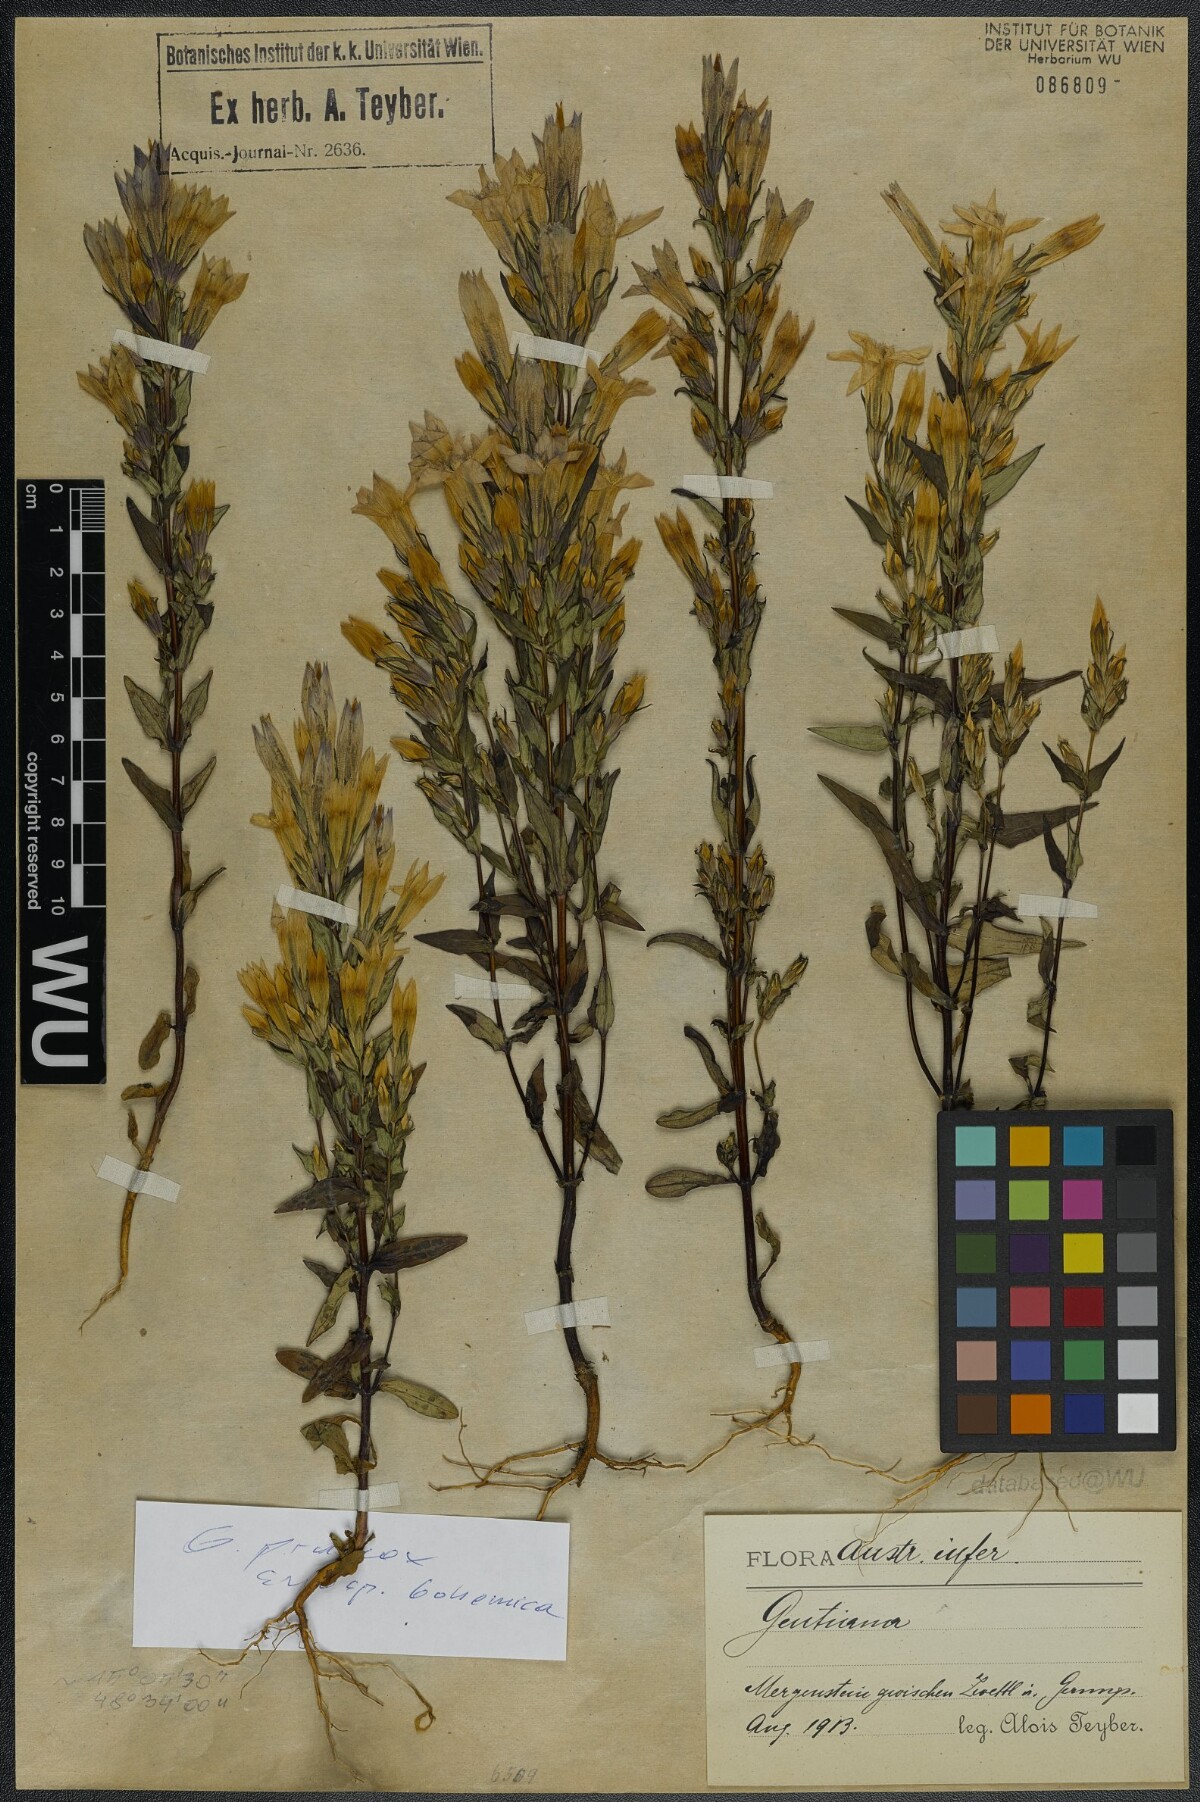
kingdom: Plantae
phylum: Tracheophyta
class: Magnoliopsida
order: Gentianales
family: Gentianaceae
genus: Gentianella
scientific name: Gentianella praecox
